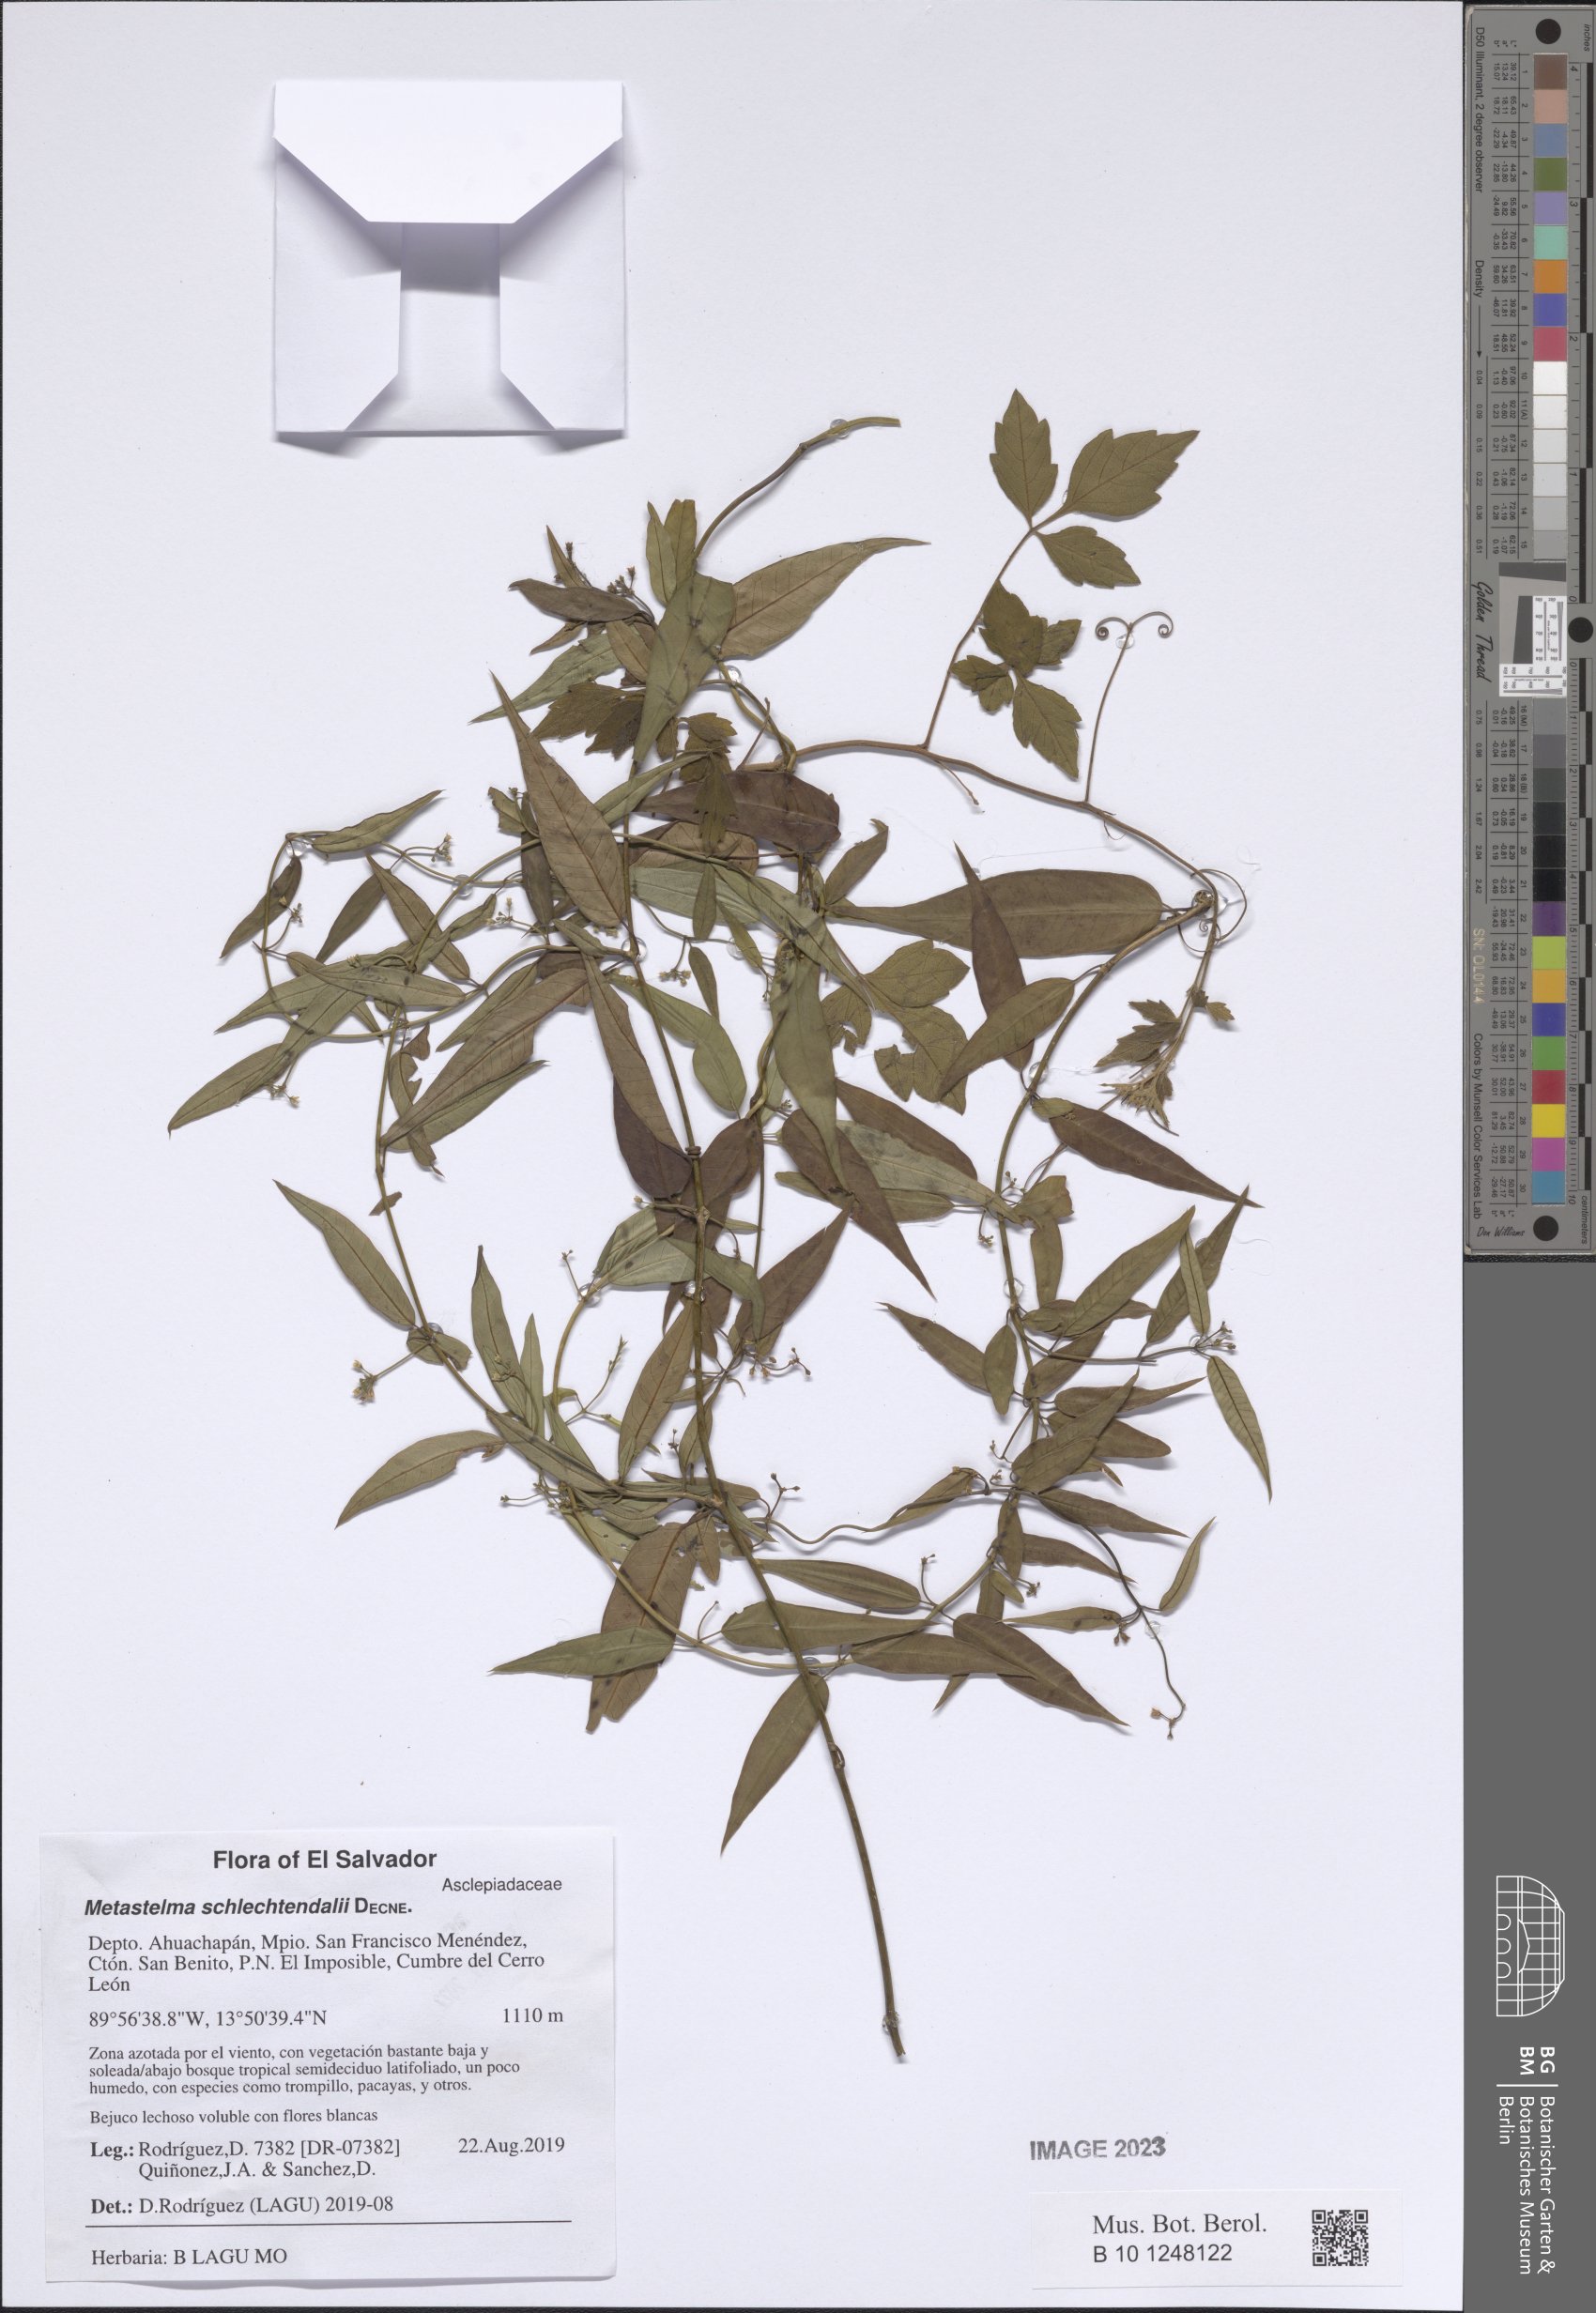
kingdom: Plantae
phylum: Tracheophyta
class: Magnoliopsida
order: Gentianales
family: Apocynaceae
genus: Metastelma
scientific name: Metastelma schlechtendalii
